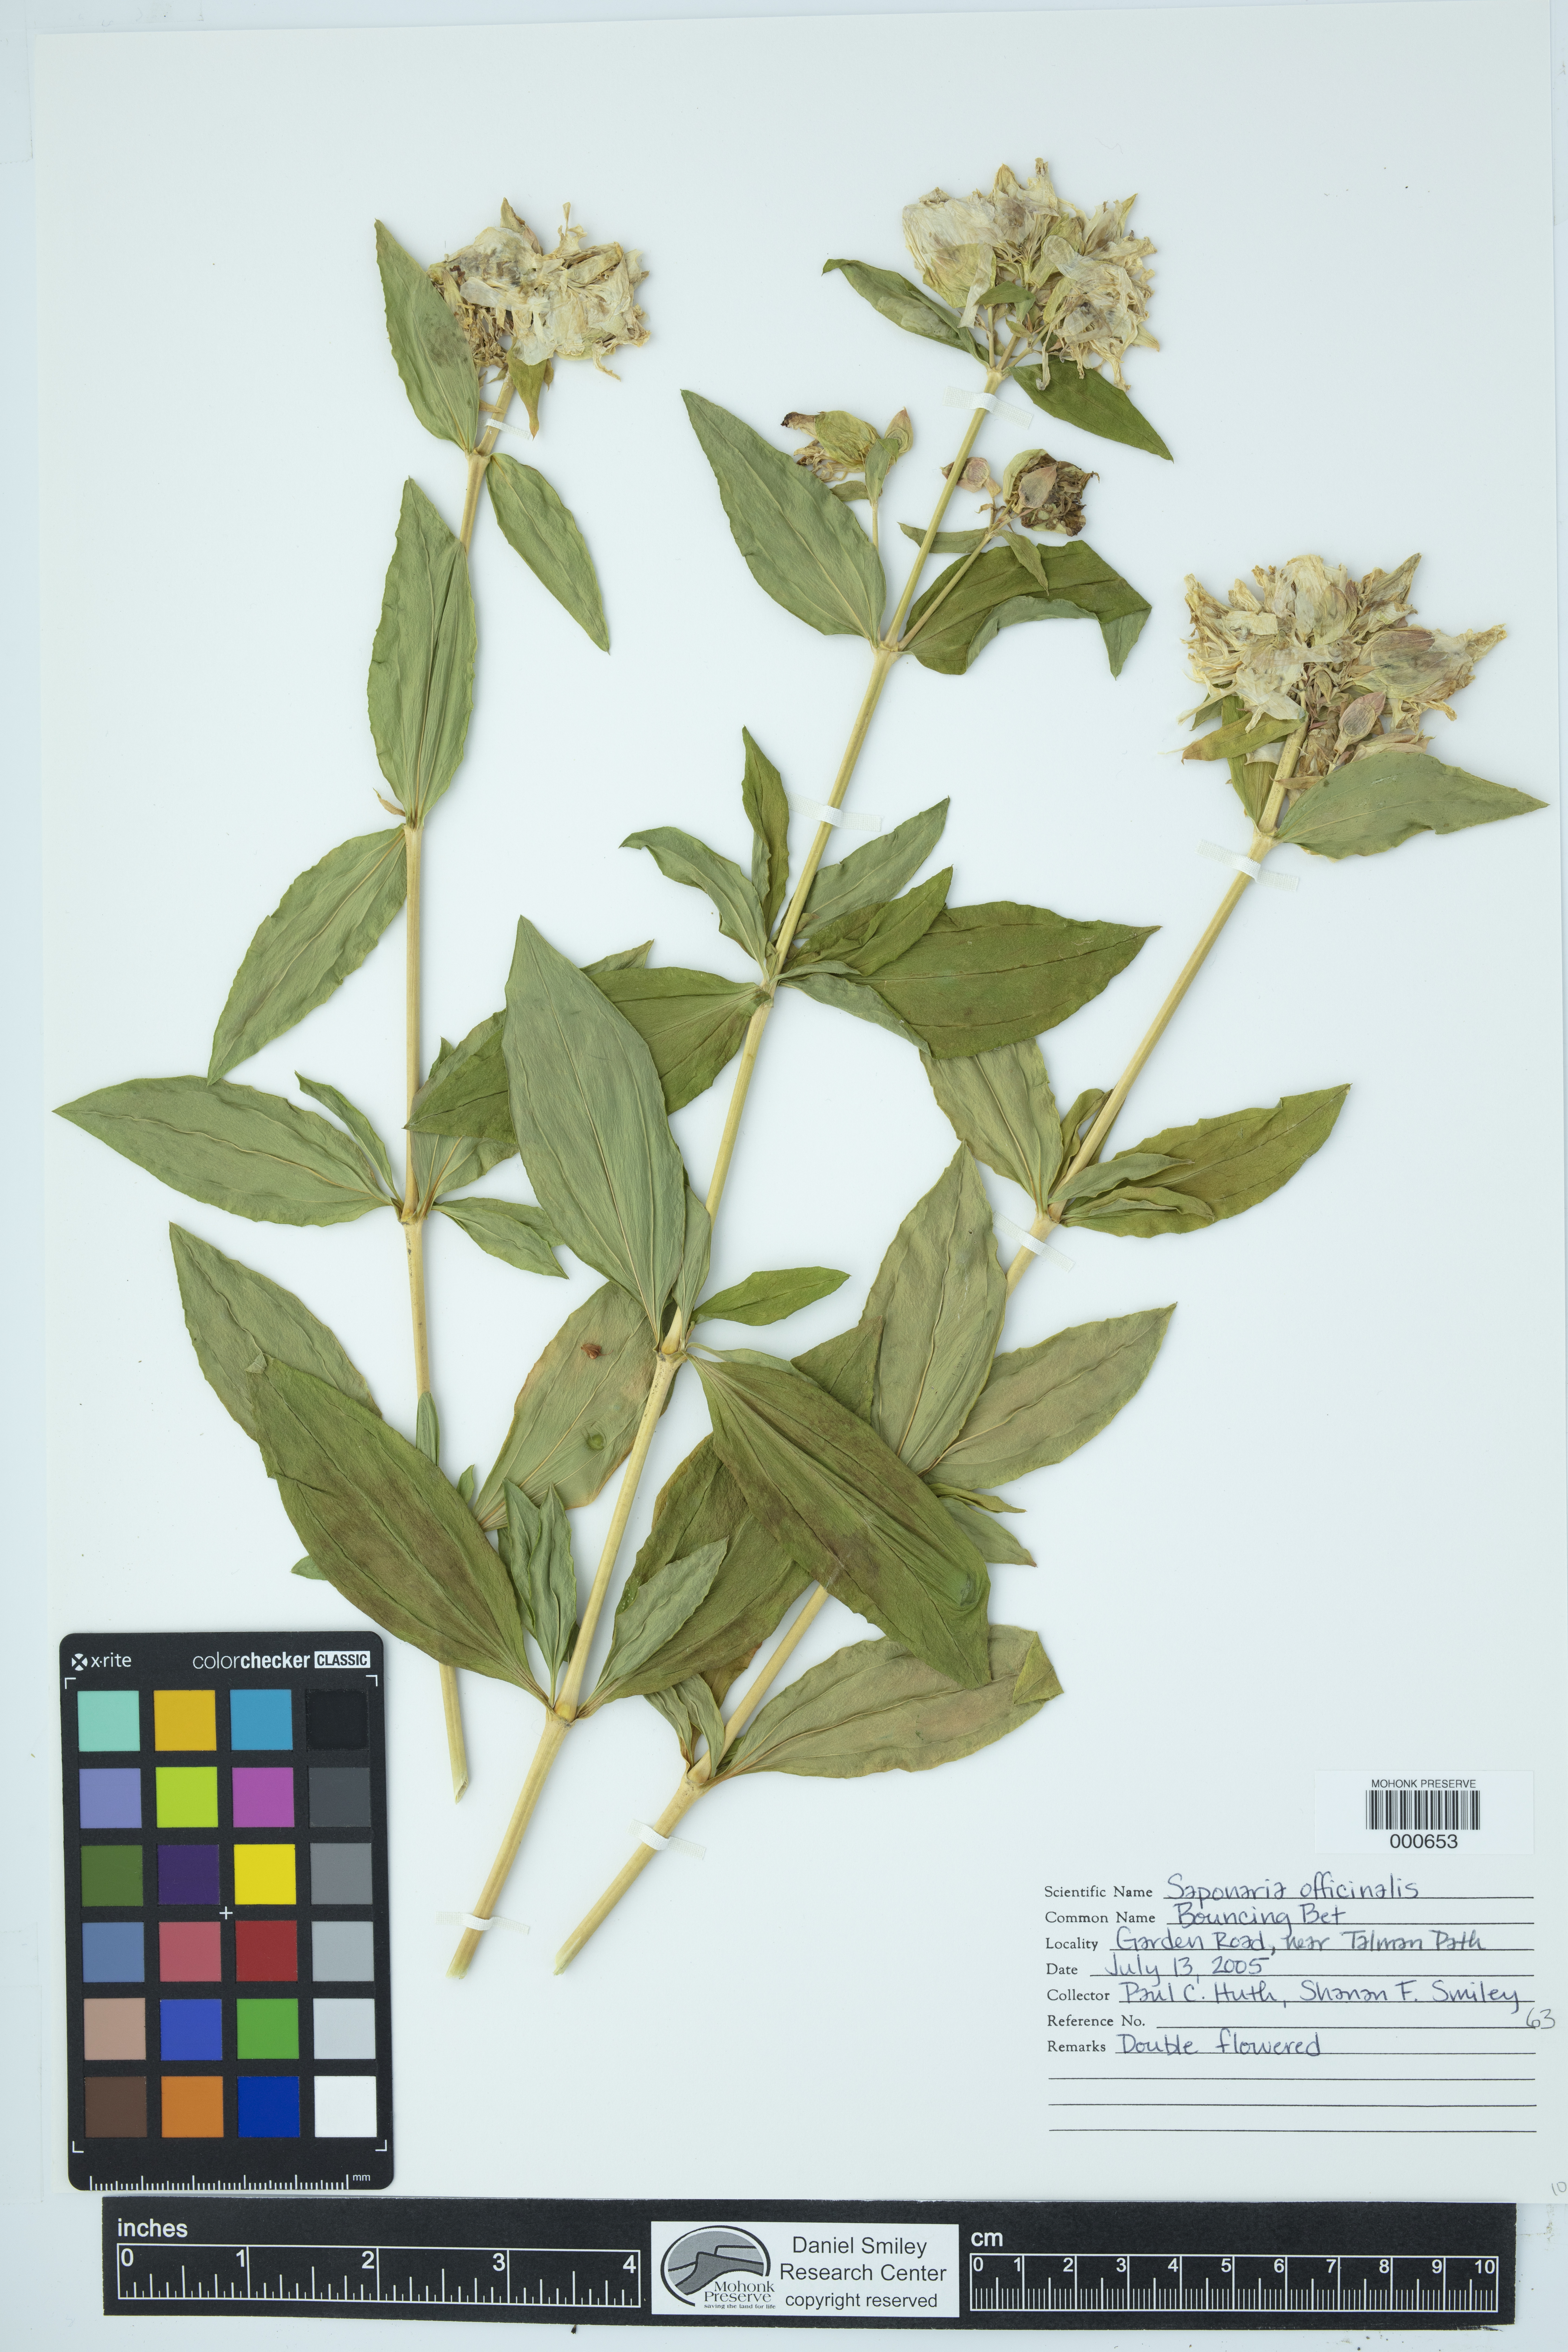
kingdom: Plantae
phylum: Tracheophyta
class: Magnoliopsida
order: Caryophyllales
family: Caryophyllaceae
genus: Saponaria
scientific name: Saponaria officinalis
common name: Soapwort
